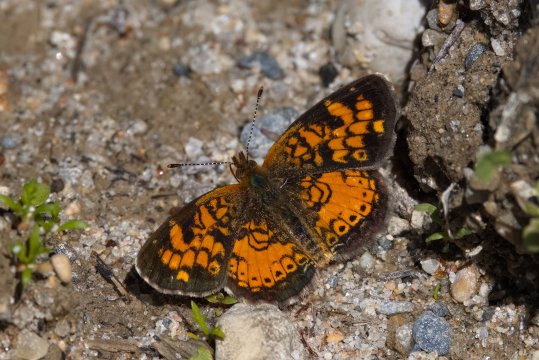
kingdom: Animalia
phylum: Arthropoda
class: Insecta
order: Lepidoptera
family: Nymphalidae
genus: Phyciodes
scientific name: Phyciodes tharos
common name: Northern Crescent
